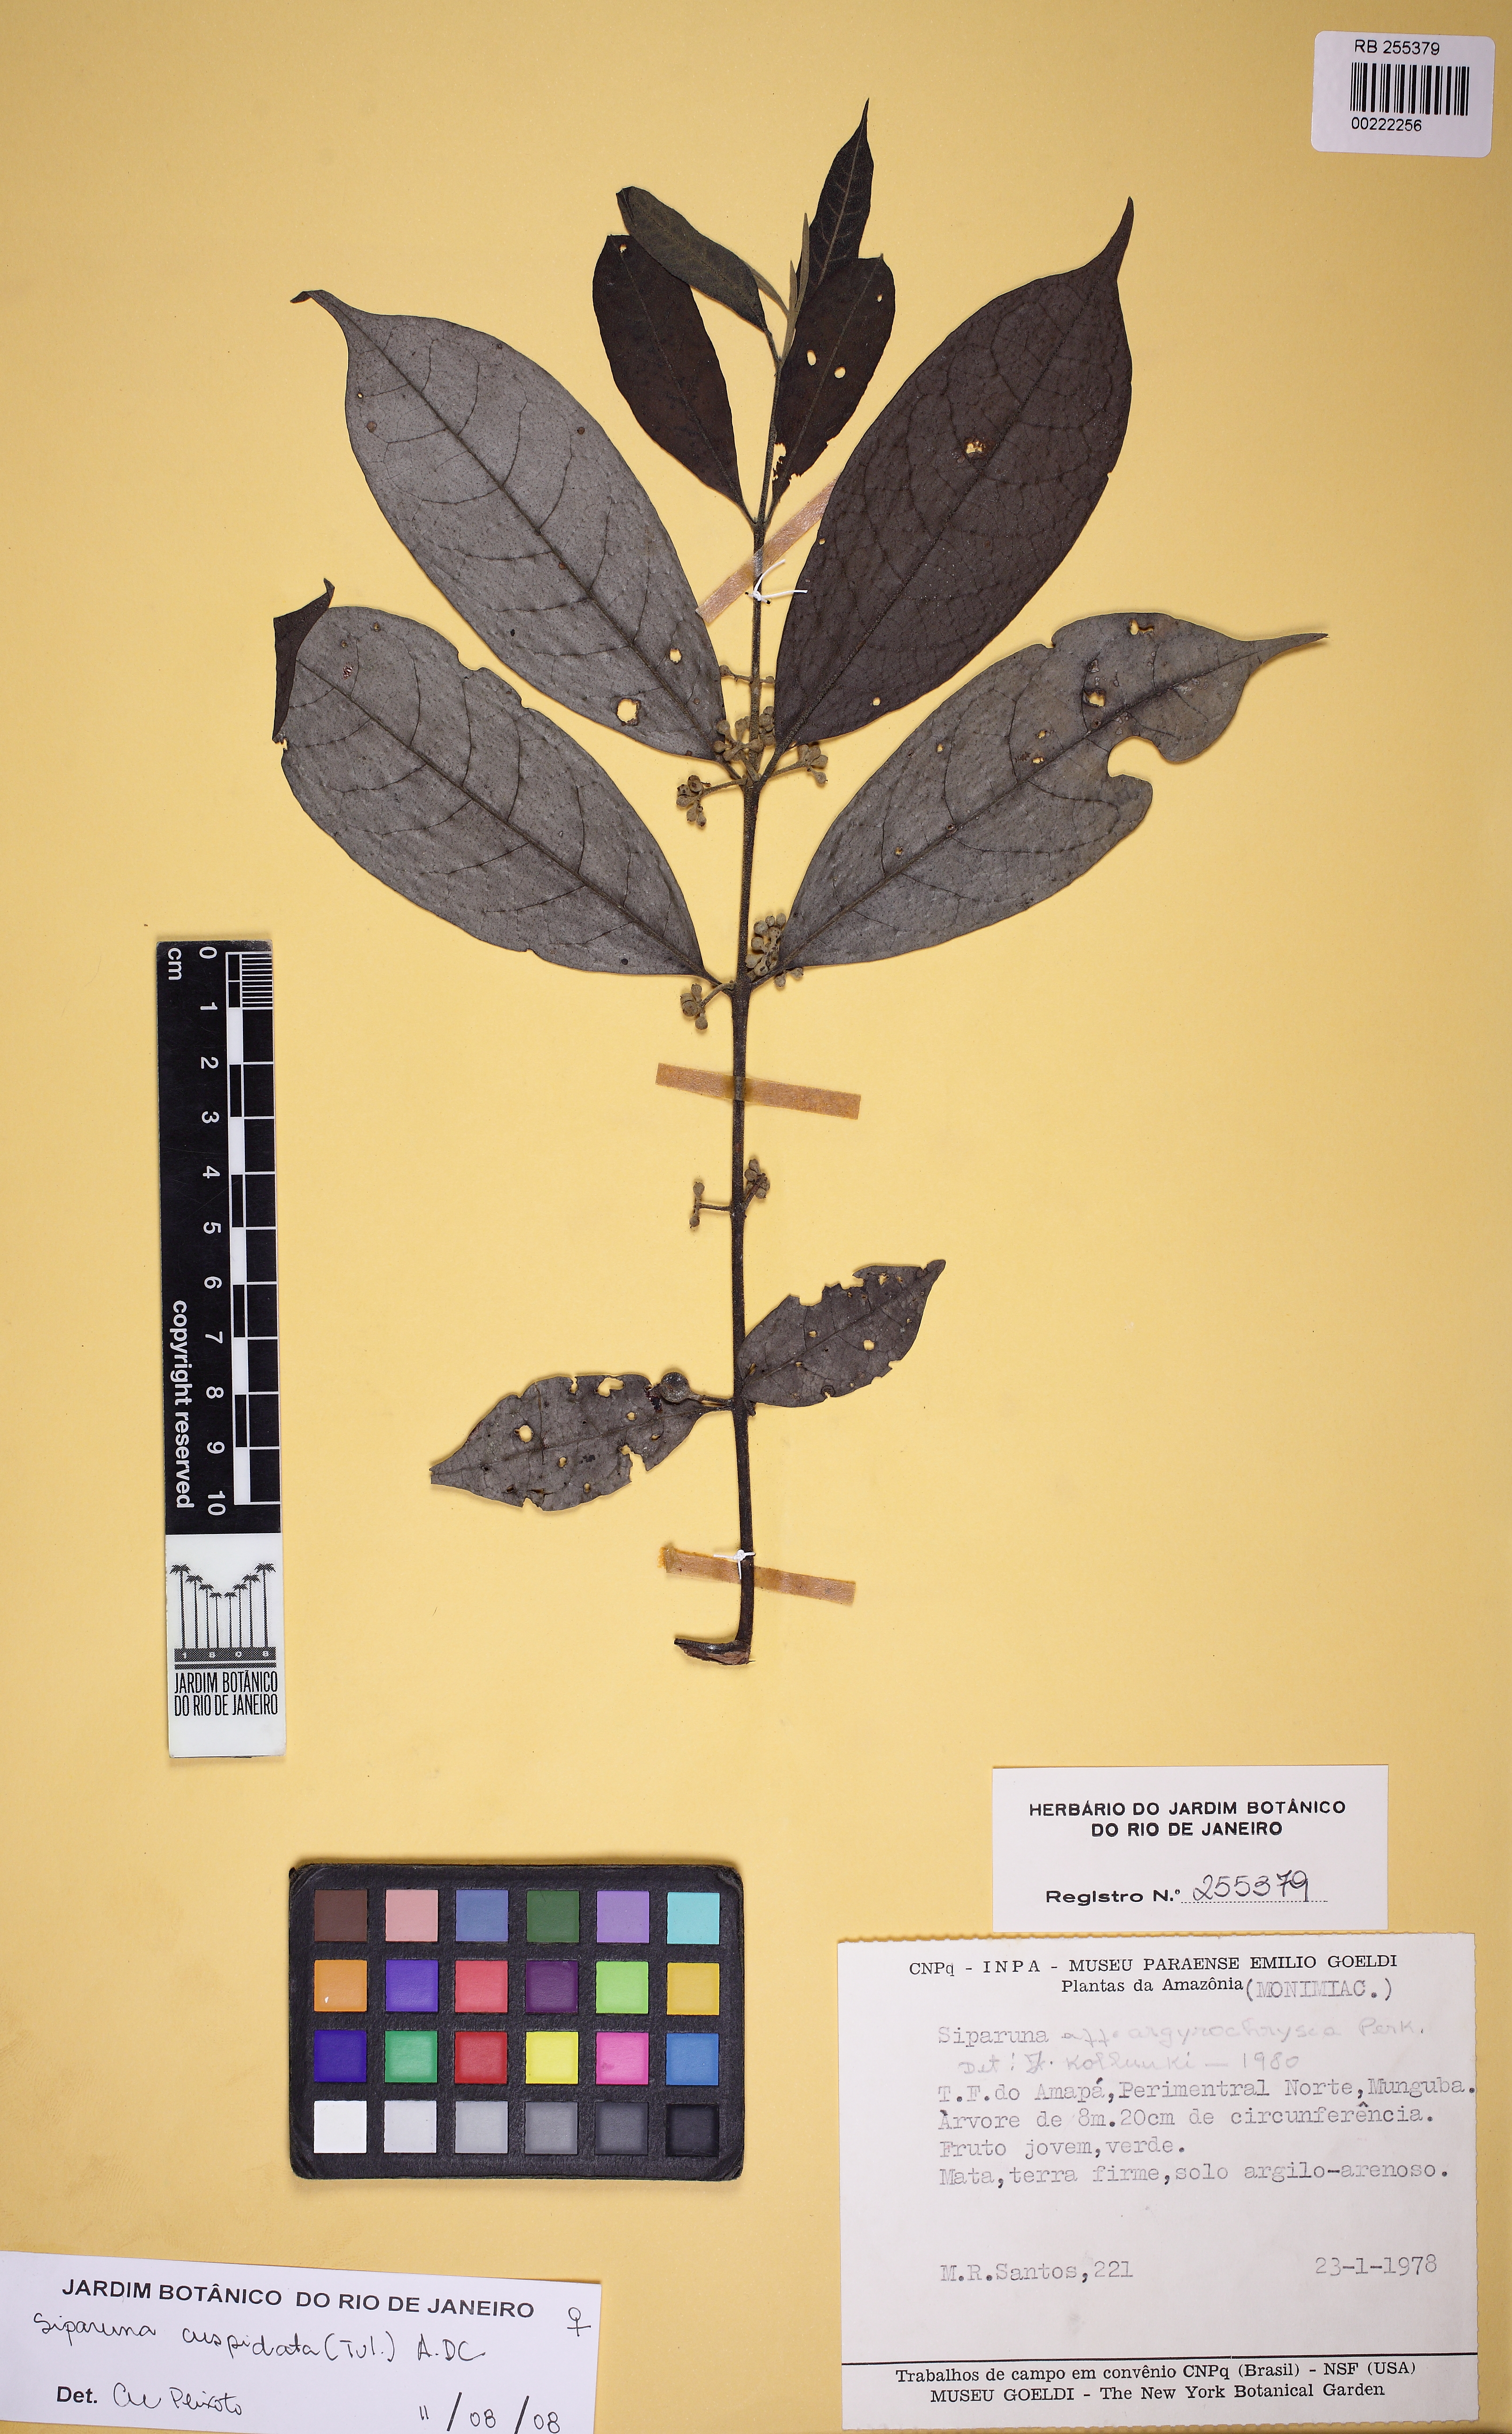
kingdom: Plantae
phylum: Tracheophyta
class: Magnoliopsida
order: Laurales
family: Siparunaceae
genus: Siparuna
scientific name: Siparuna cuspidata
